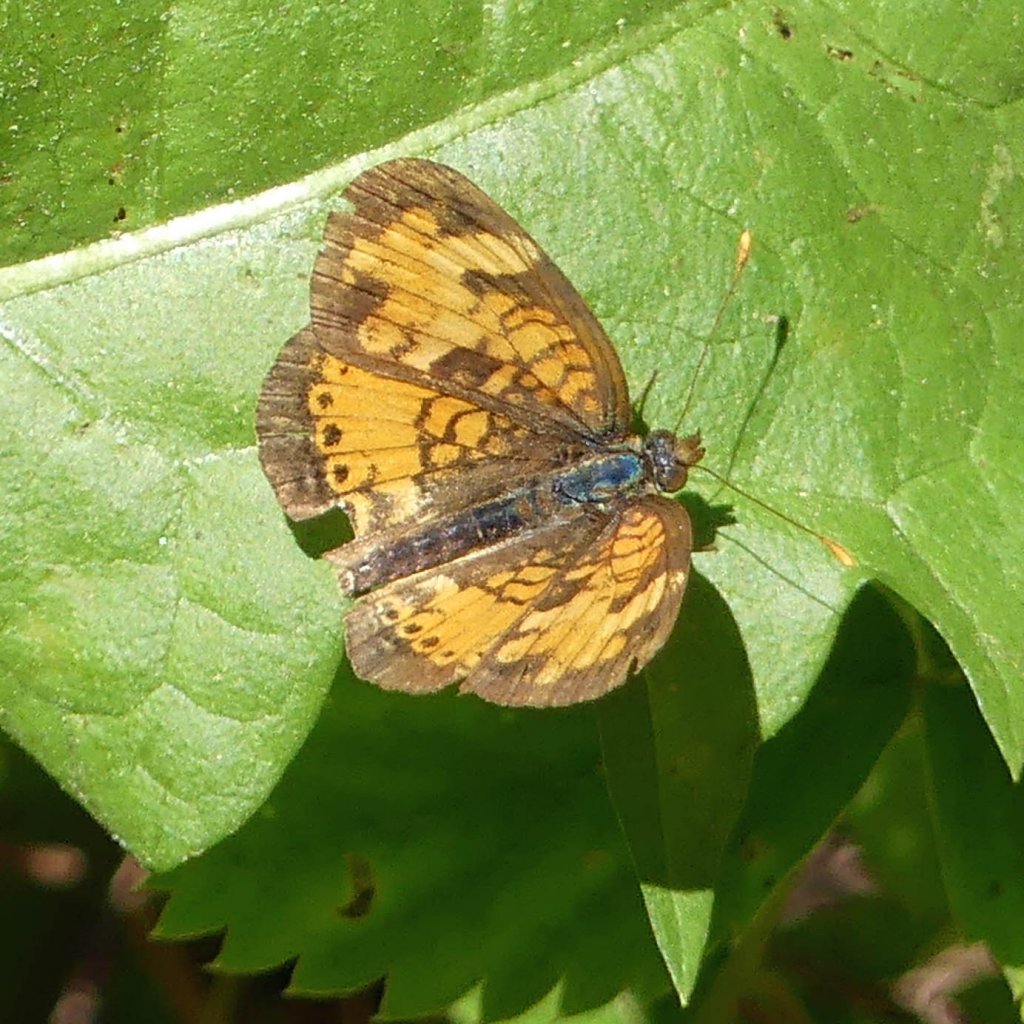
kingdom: Animalia
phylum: Arthropoda
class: Insecta
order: Lepidoptera
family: Nymphalidae
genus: Phyciodes
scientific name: Phyciodes tharos
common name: Northern Crescent
